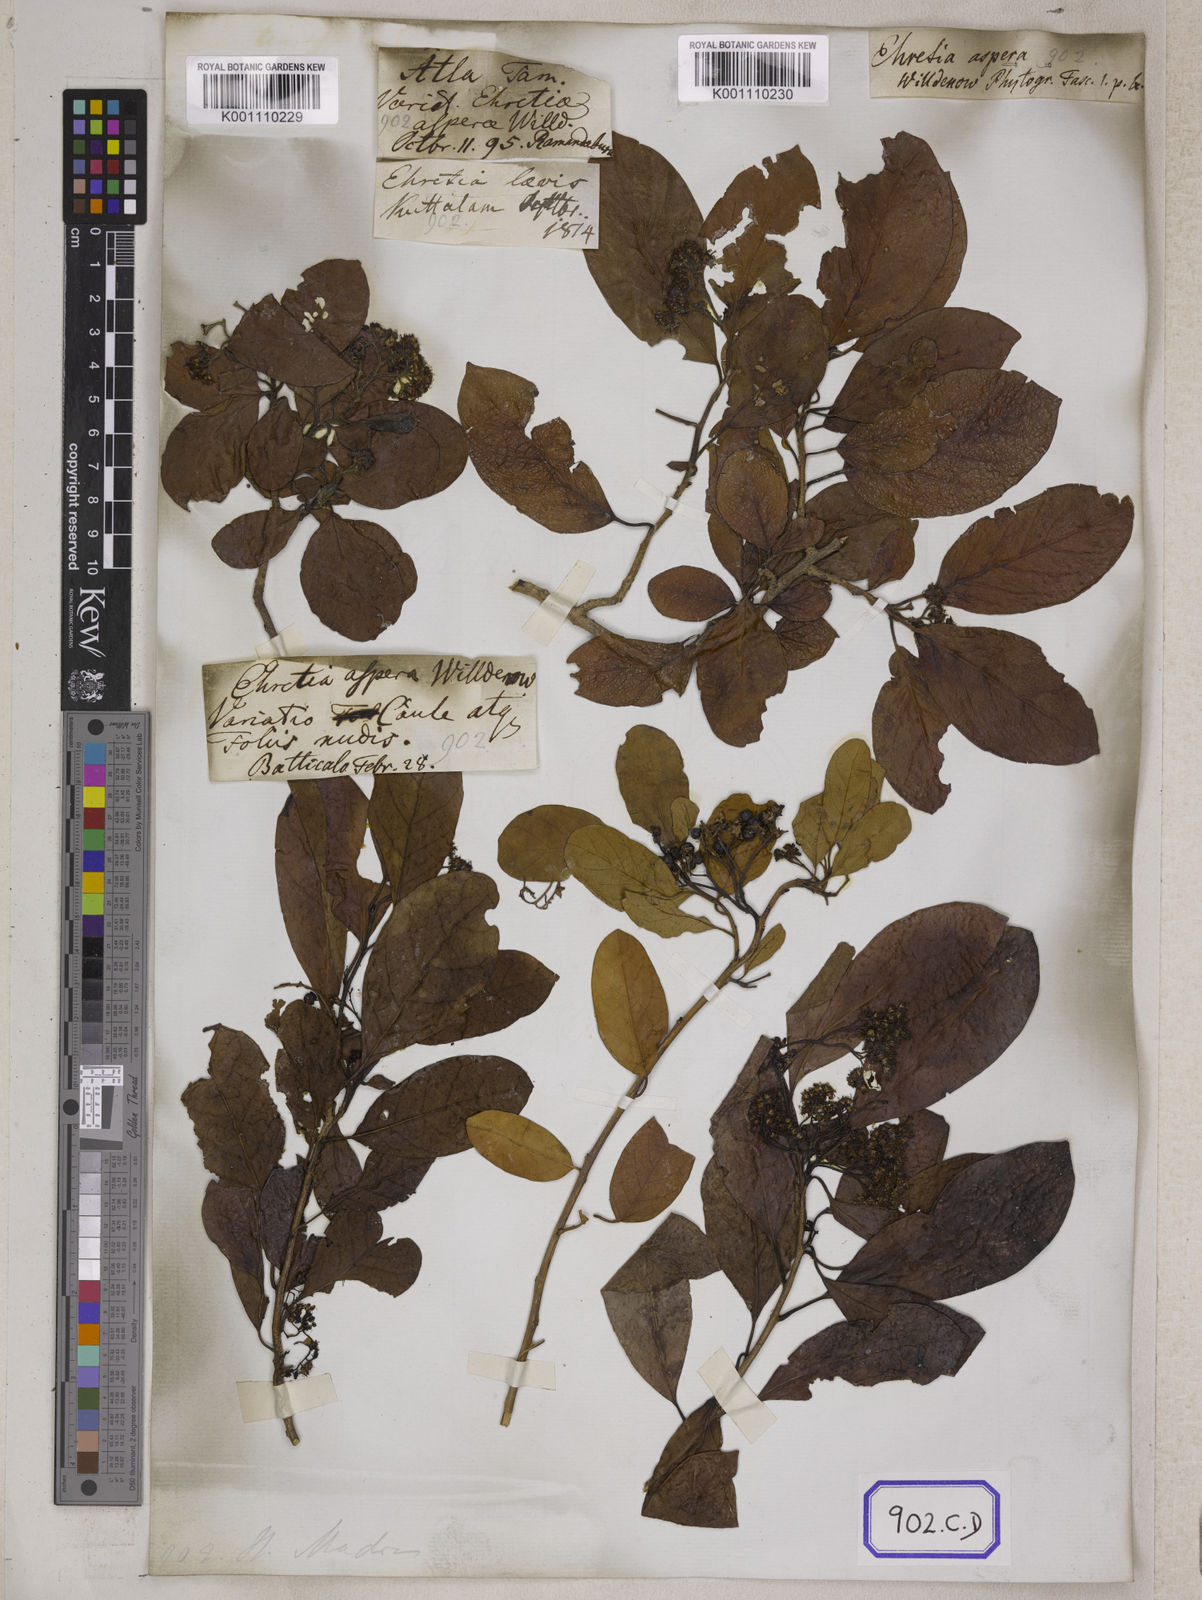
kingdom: Plantae
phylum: Tracheophyta
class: Magnoliopsida
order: Boraginales
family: Ehretiaceae
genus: Ehretia
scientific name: Ehretia aspera
